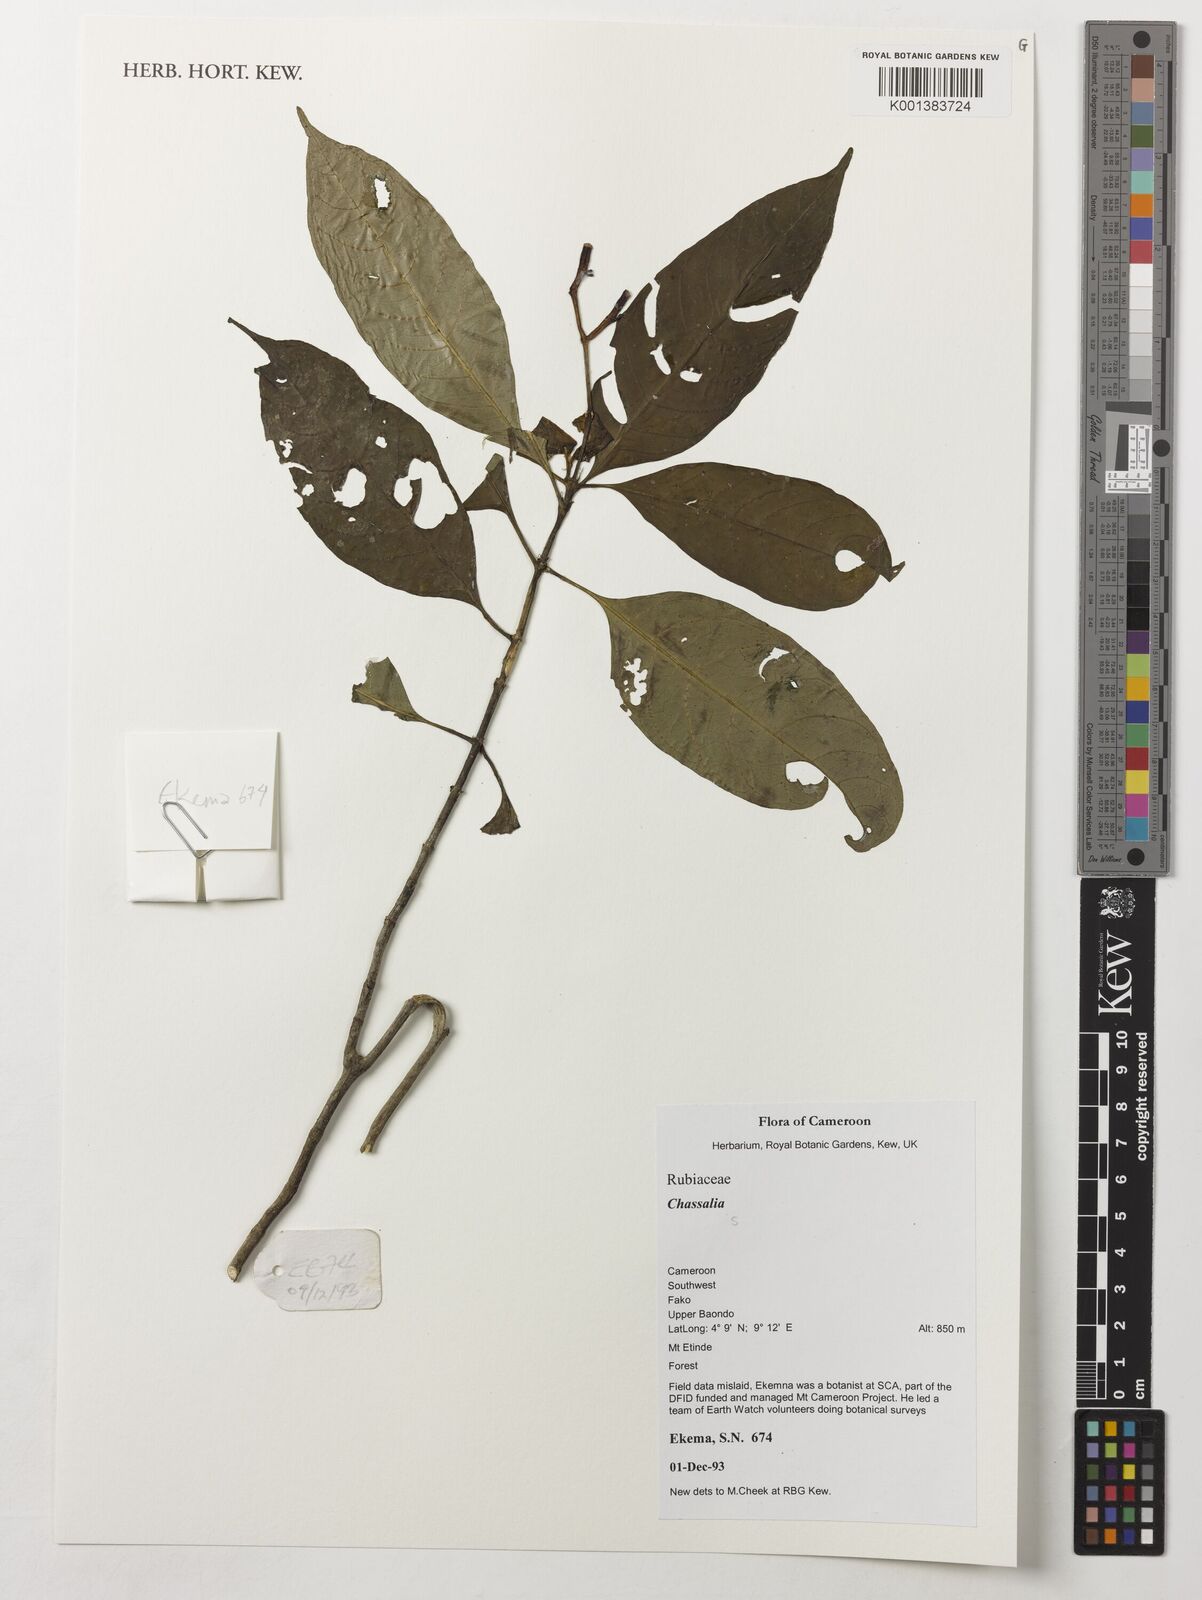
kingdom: Plantae
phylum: Tracheophyta
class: Magnoliopsida
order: Gentianales
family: Rubiaceae
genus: Chassalia
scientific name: Chassalia
